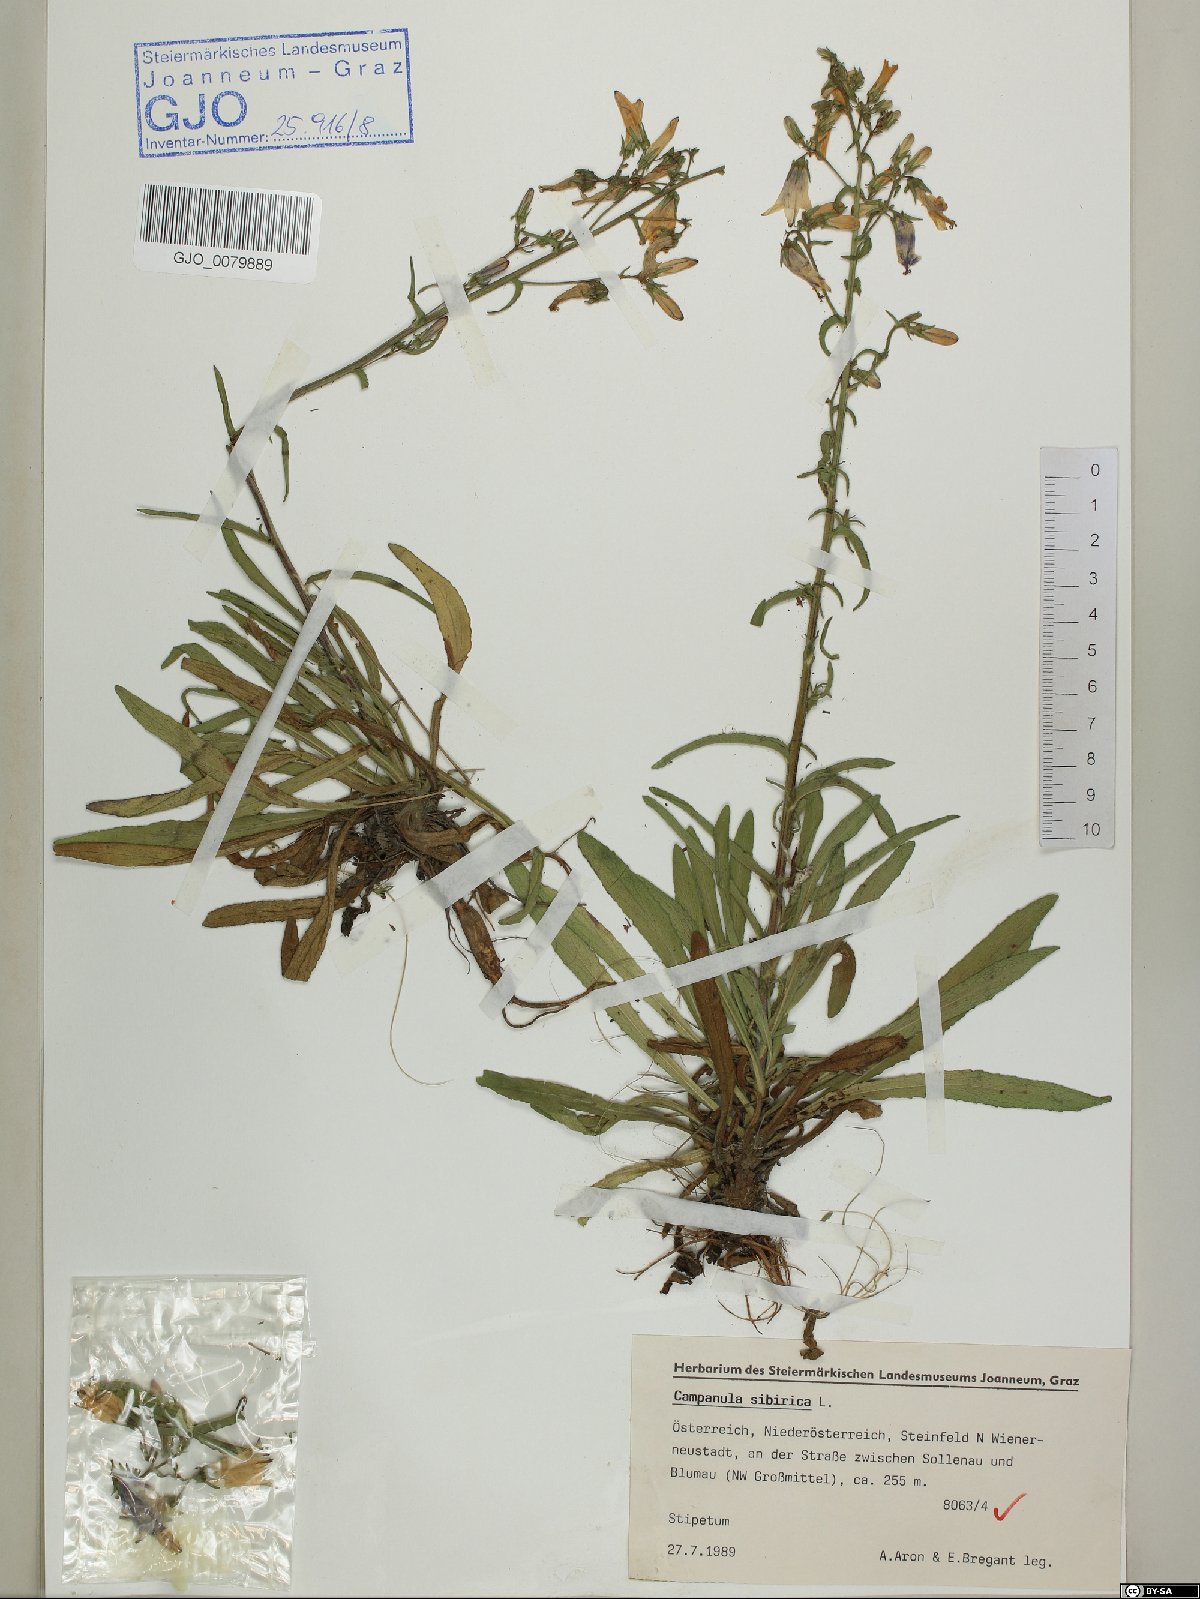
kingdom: Plantae
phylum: Tracheophyta
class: Magnoliopsida
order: Asterales
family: Campanulaceae
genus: Campanula
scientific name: Campanula sibirica
